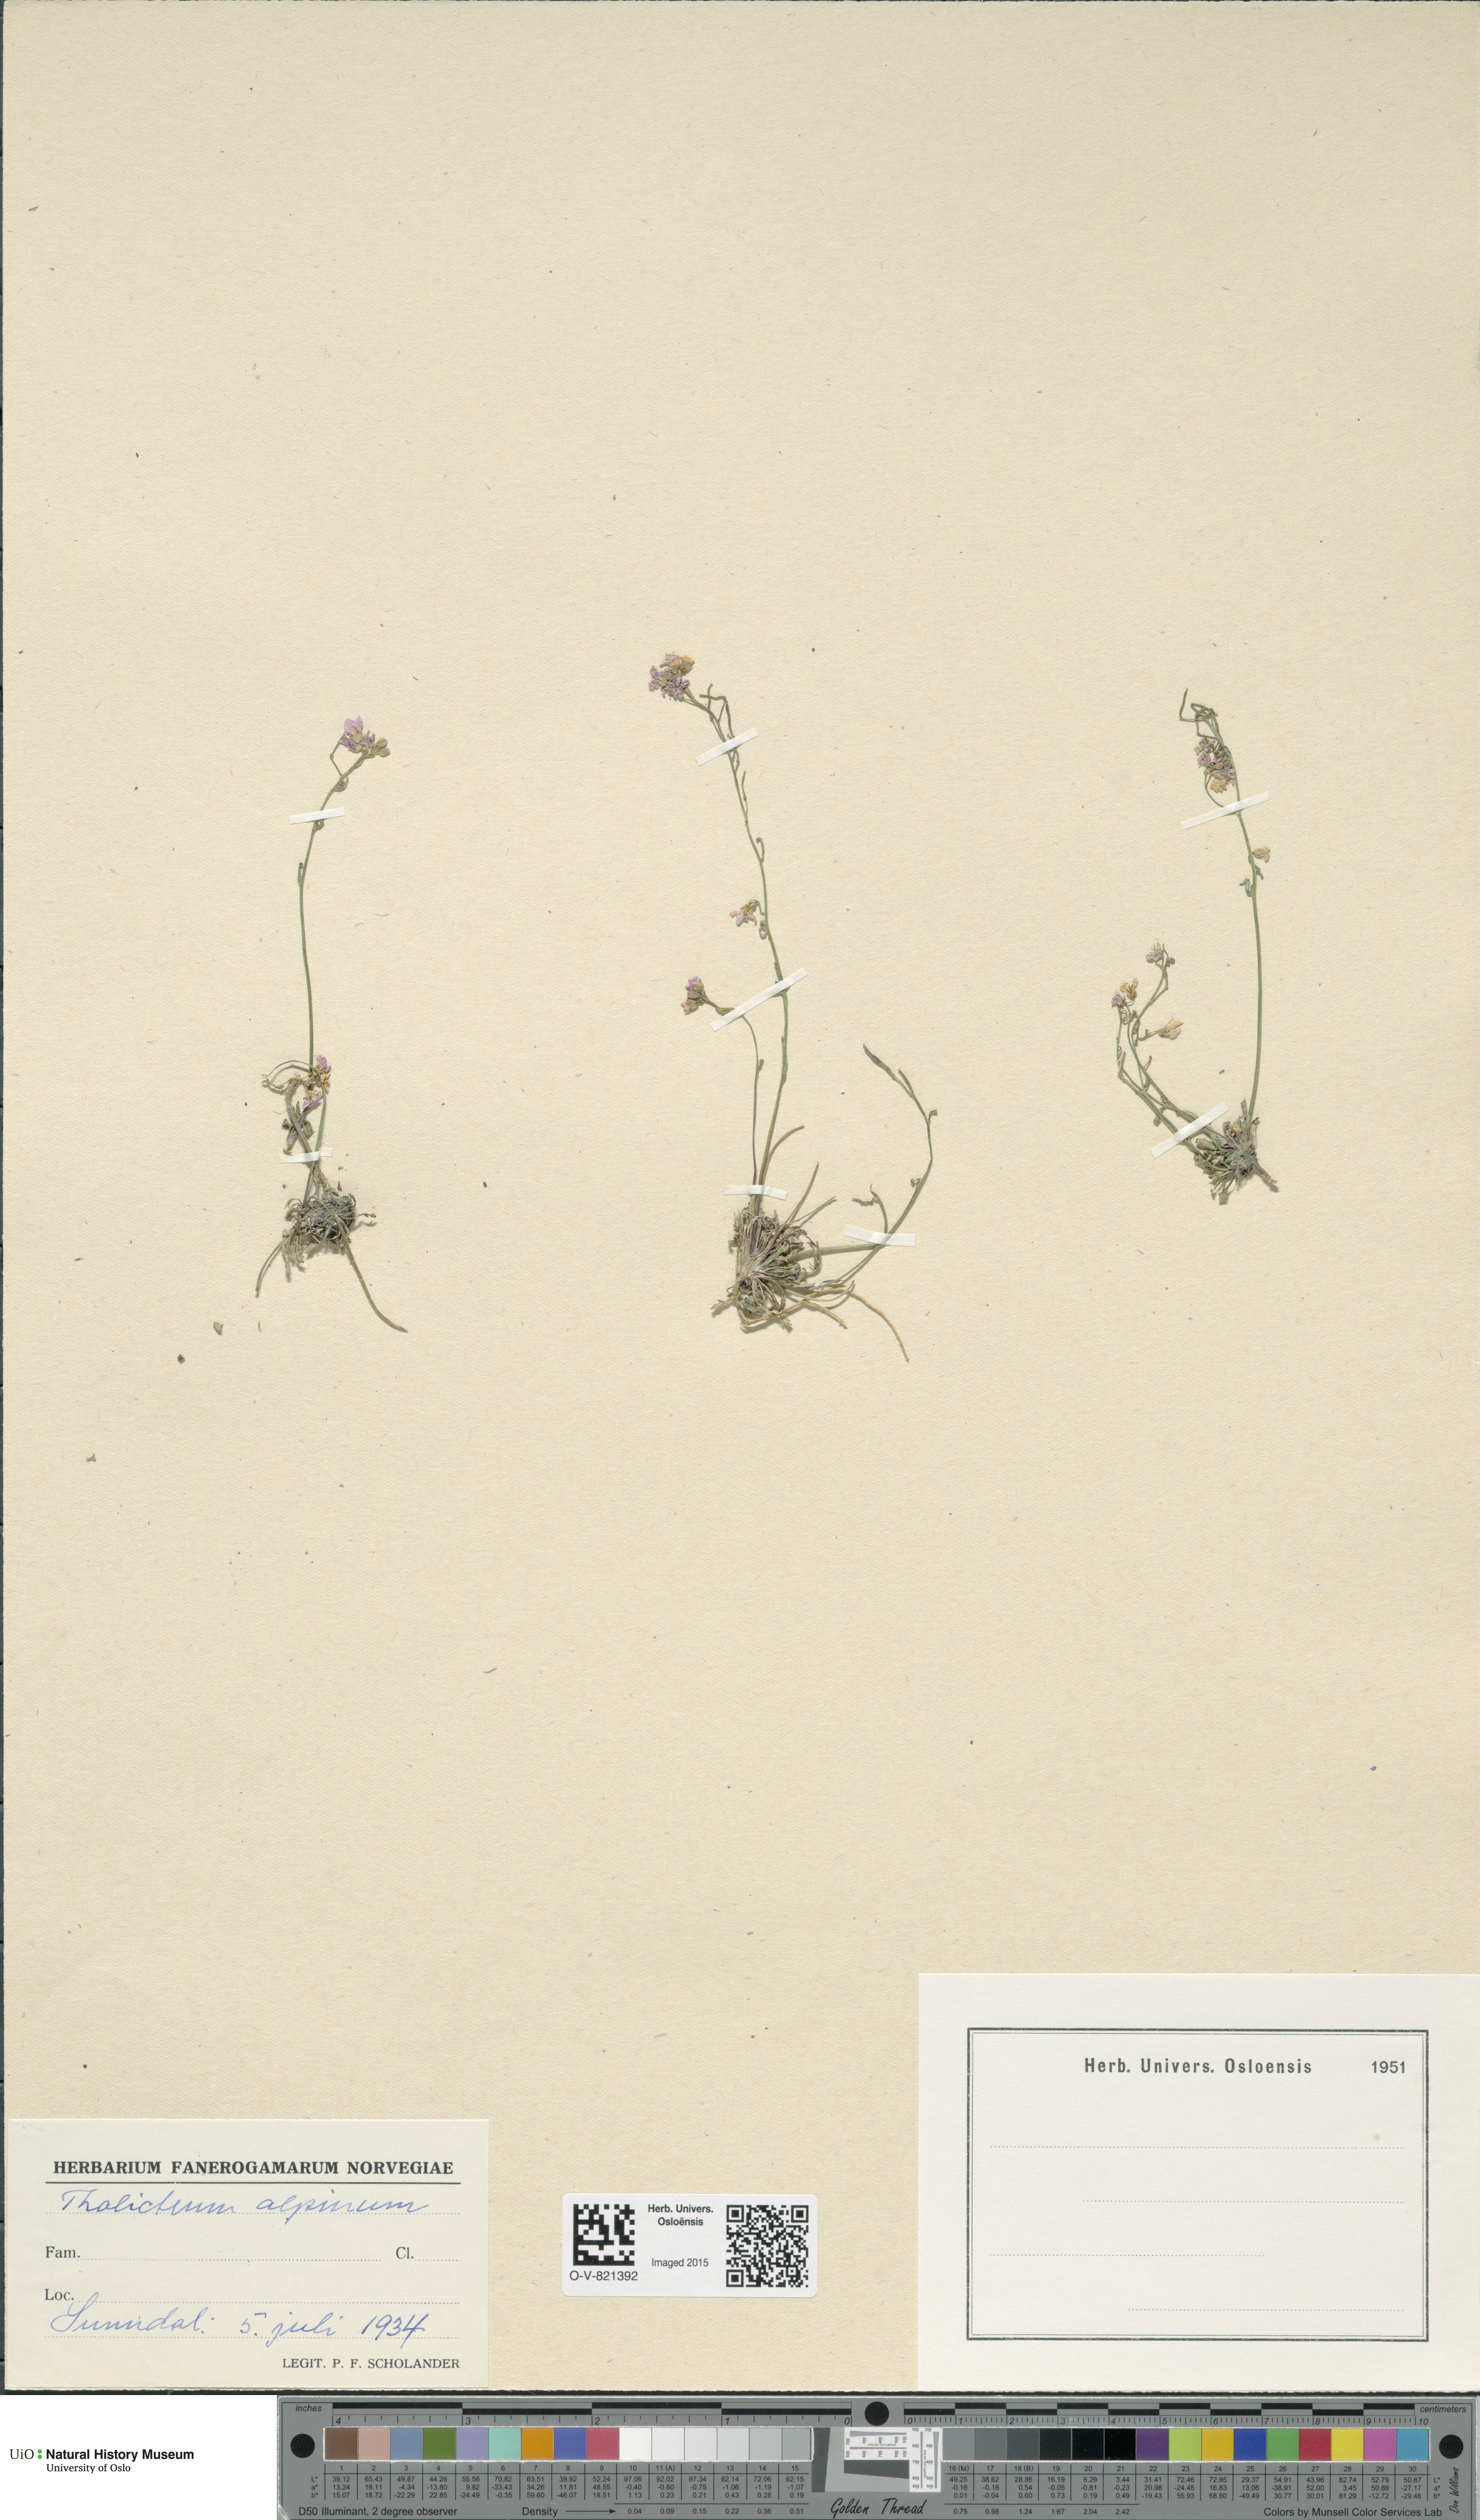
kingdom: Plantae
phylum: Tracheophyta
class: Magnoliopsida
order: Ranunculales
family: Ranunculaceae
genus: Thalictrum
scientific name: Thalictrum alpinum
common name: Alpine meadow-rue
